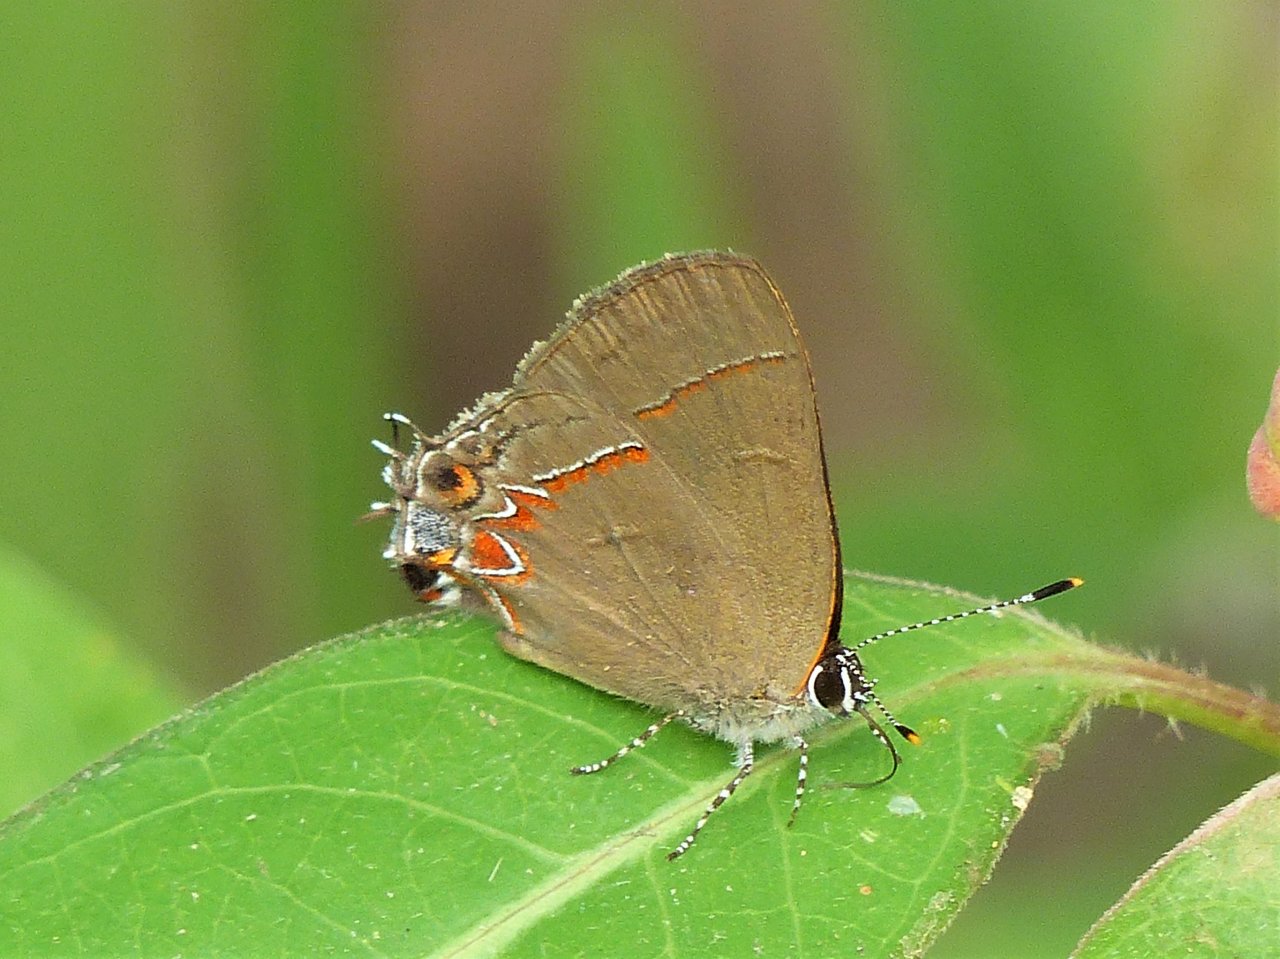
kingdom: Animalia
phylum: Arthropoda
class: Insecta
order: Lepidoptera
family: Lycaenidae
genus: Calycopis
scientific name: Calycopis isobeon
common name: Dusky-blue Groundstreak
